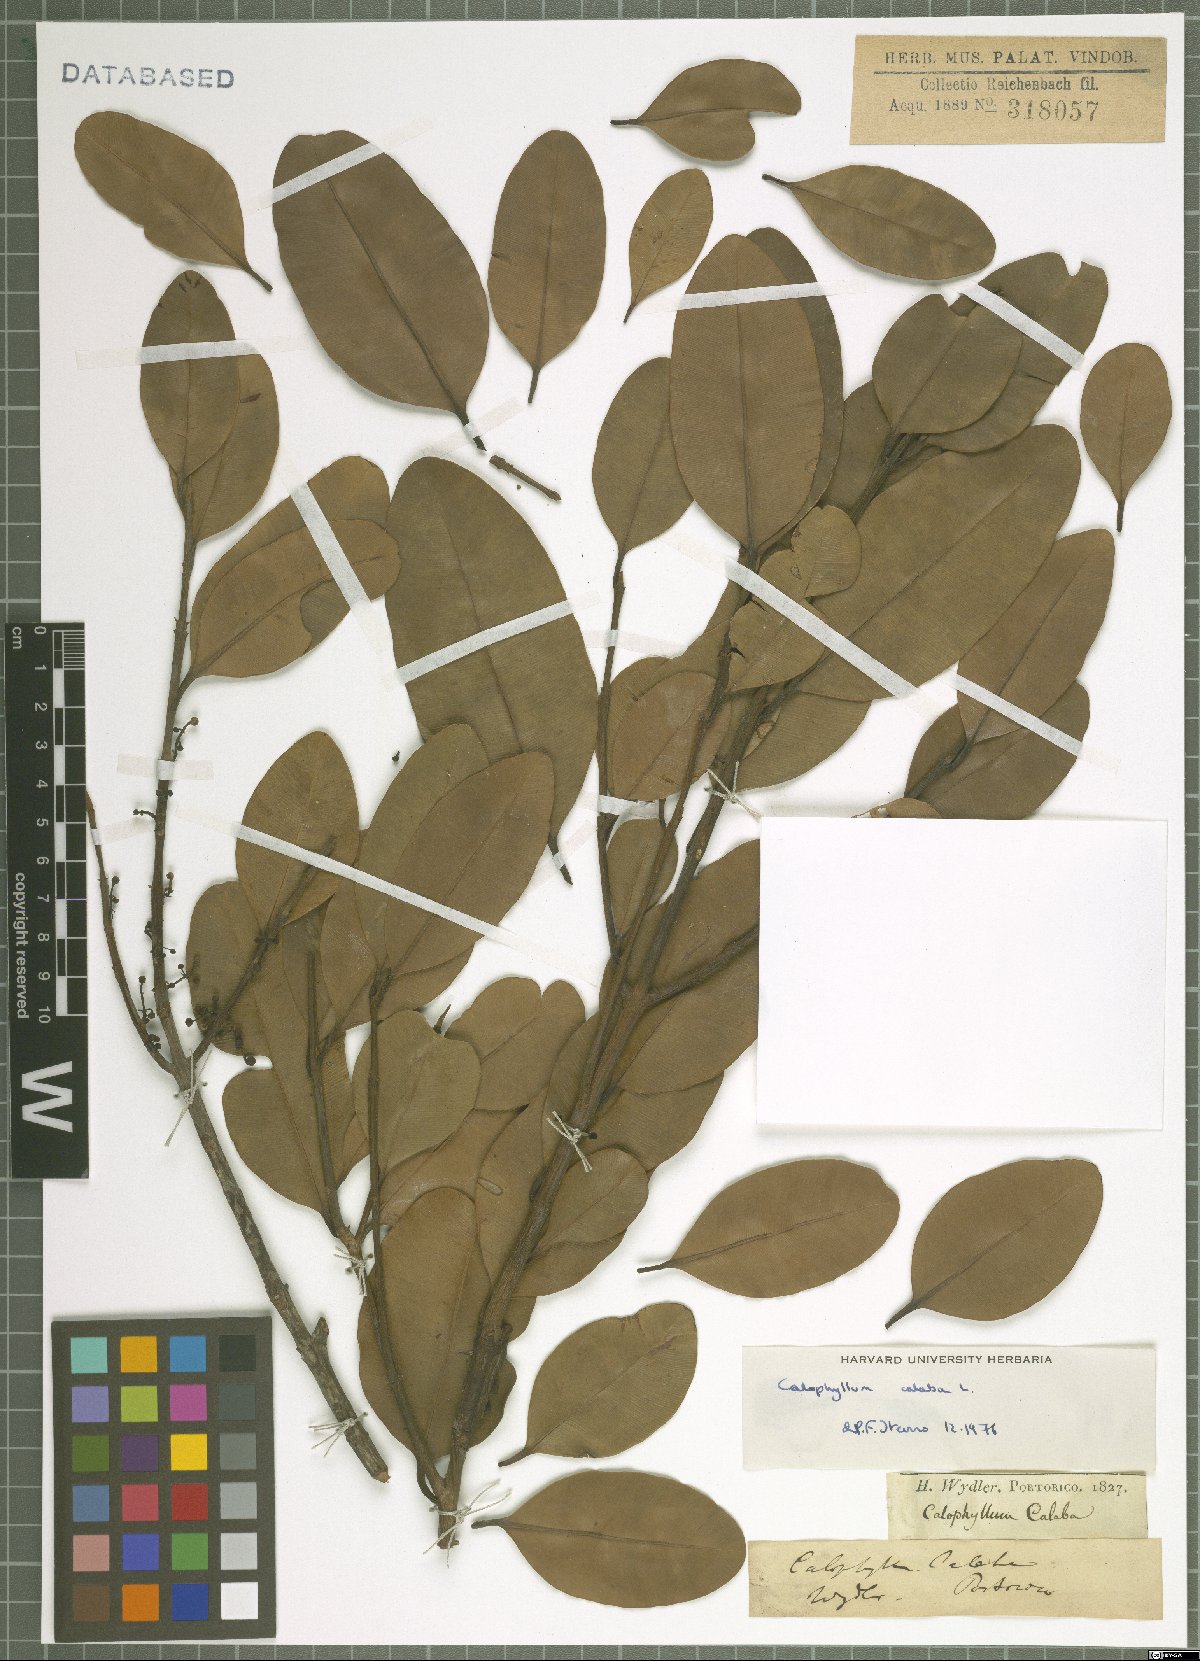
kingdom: Plantae
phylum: Tracheophyta
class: Magnoliopsida
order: Malpighiales
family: Calophyllaceae
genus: Calophyllum
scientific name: Calophyllum calaba
